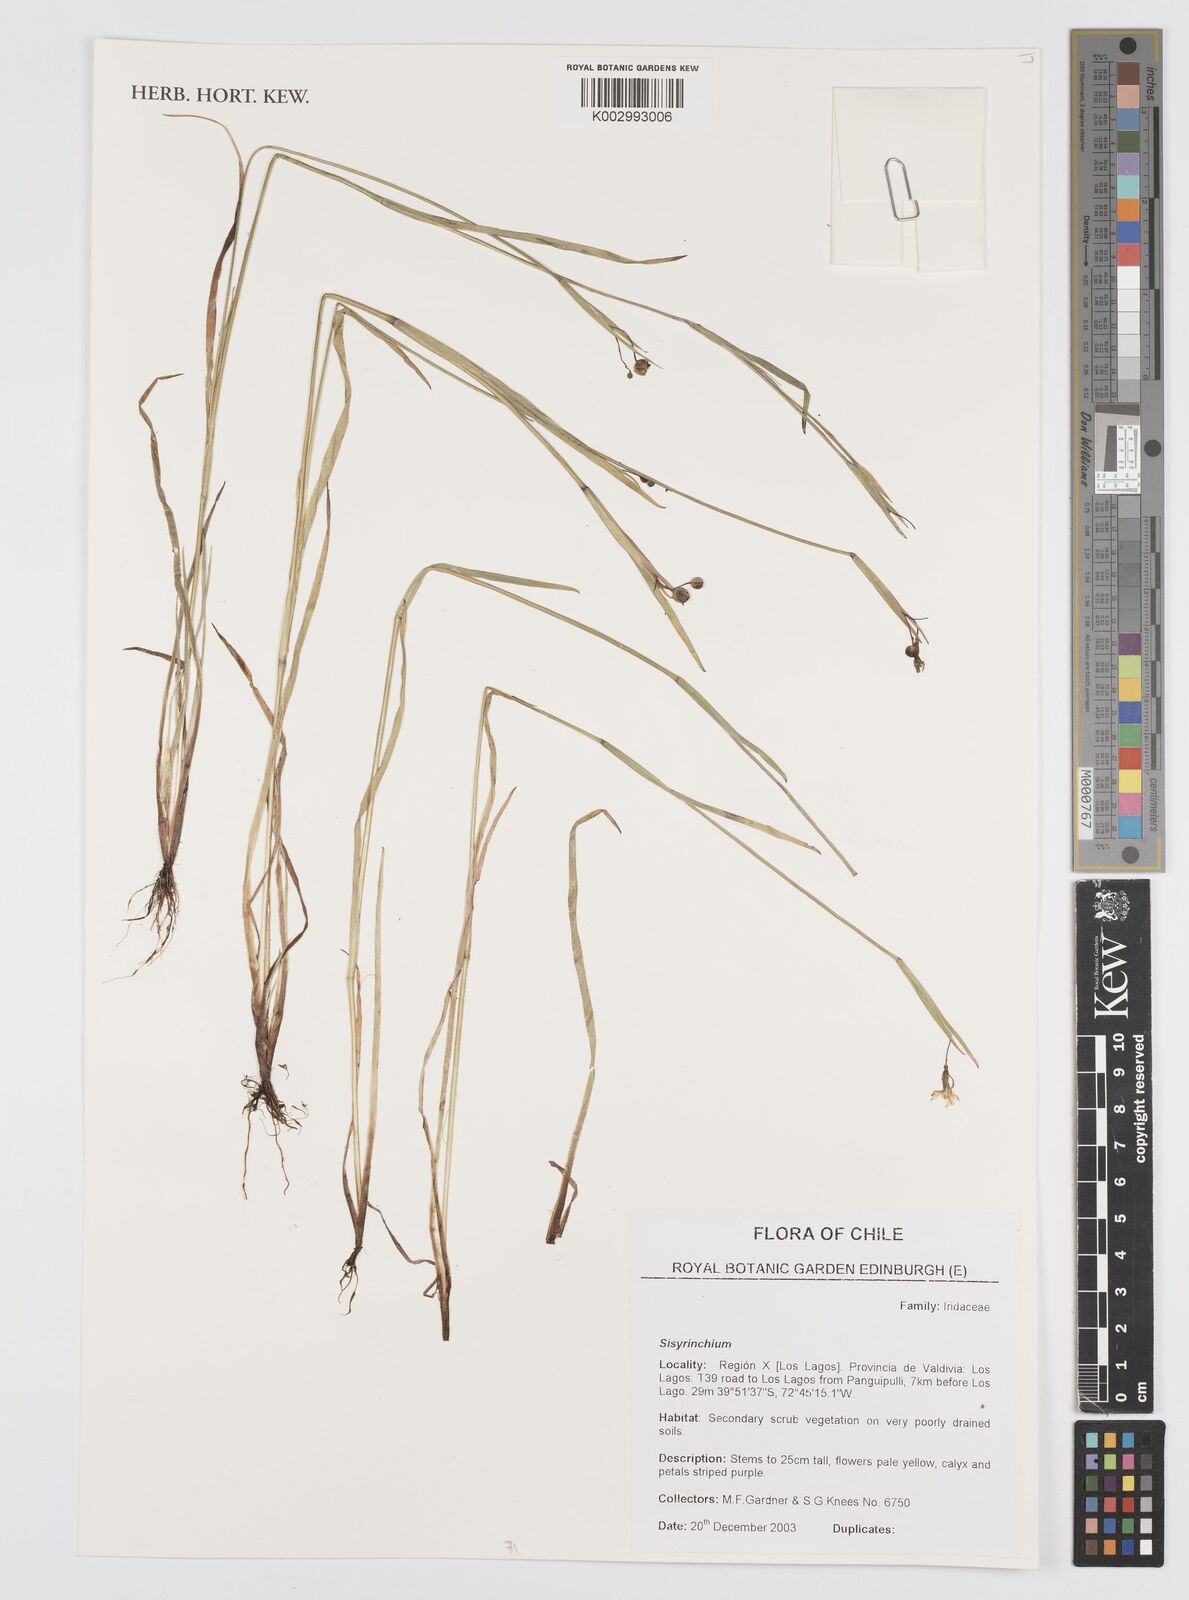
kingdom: Plantae
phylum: Tracheophyta
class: Liliopsida
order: Asparagales
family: Iridaceae
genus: Sisyrinchium
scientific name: Sisyrinchium
